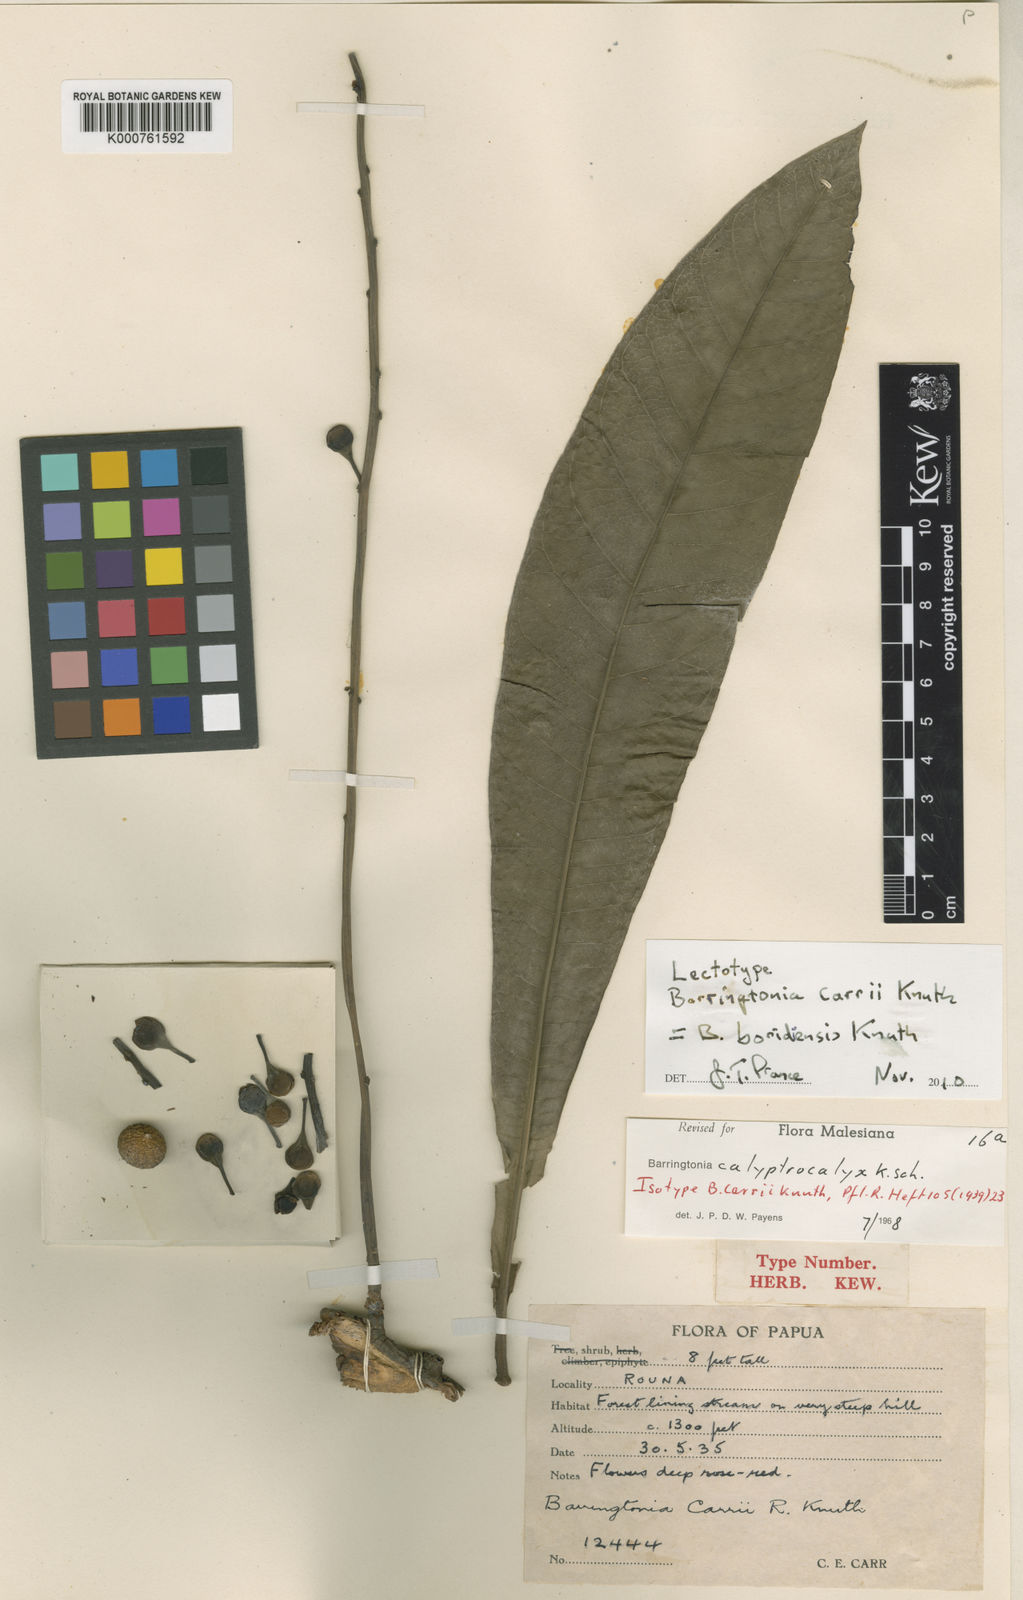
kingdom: Plantae
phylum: Tracheophyta
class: Magnoliopsida
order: Ericales
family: Lecythidaceae
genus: Barringtonia
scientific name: Barringtonia calyptrocalyx
